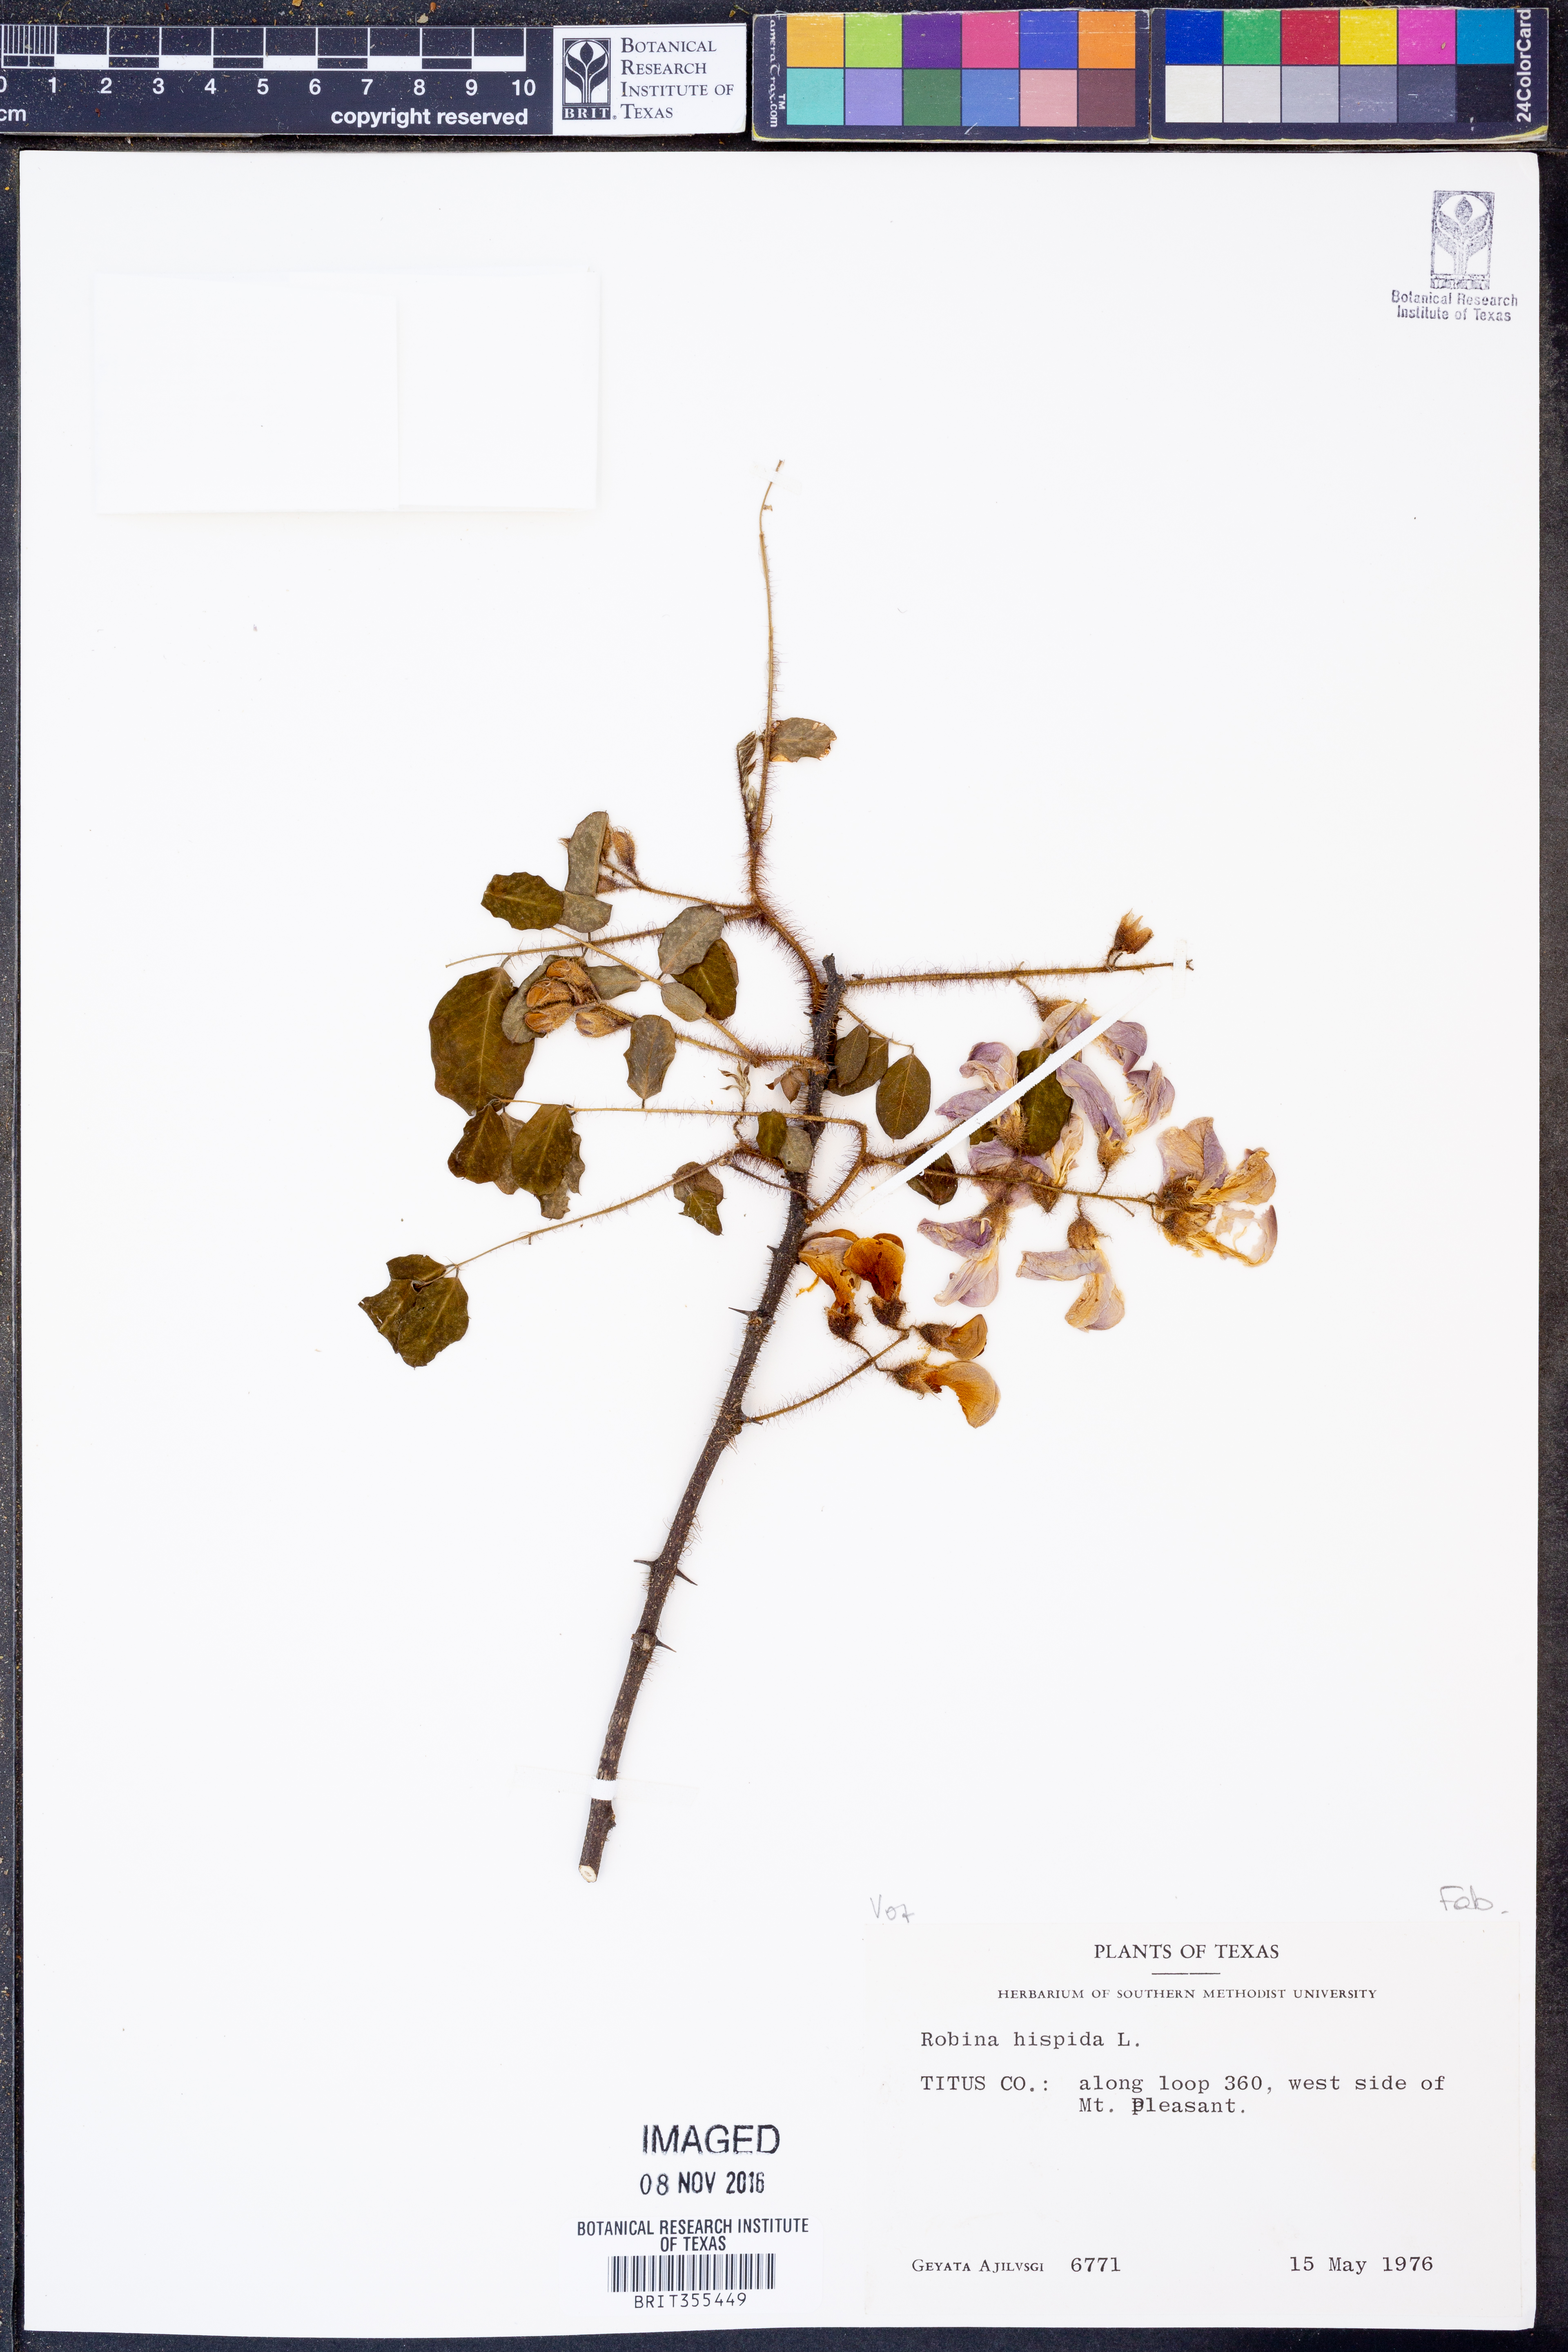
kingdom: Plantae
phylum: Tracheophyta
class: Magnoliopsida
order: Fabales
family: Fabaceae
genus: Robinia
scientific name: Robinia hispida
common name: Bristly locust
